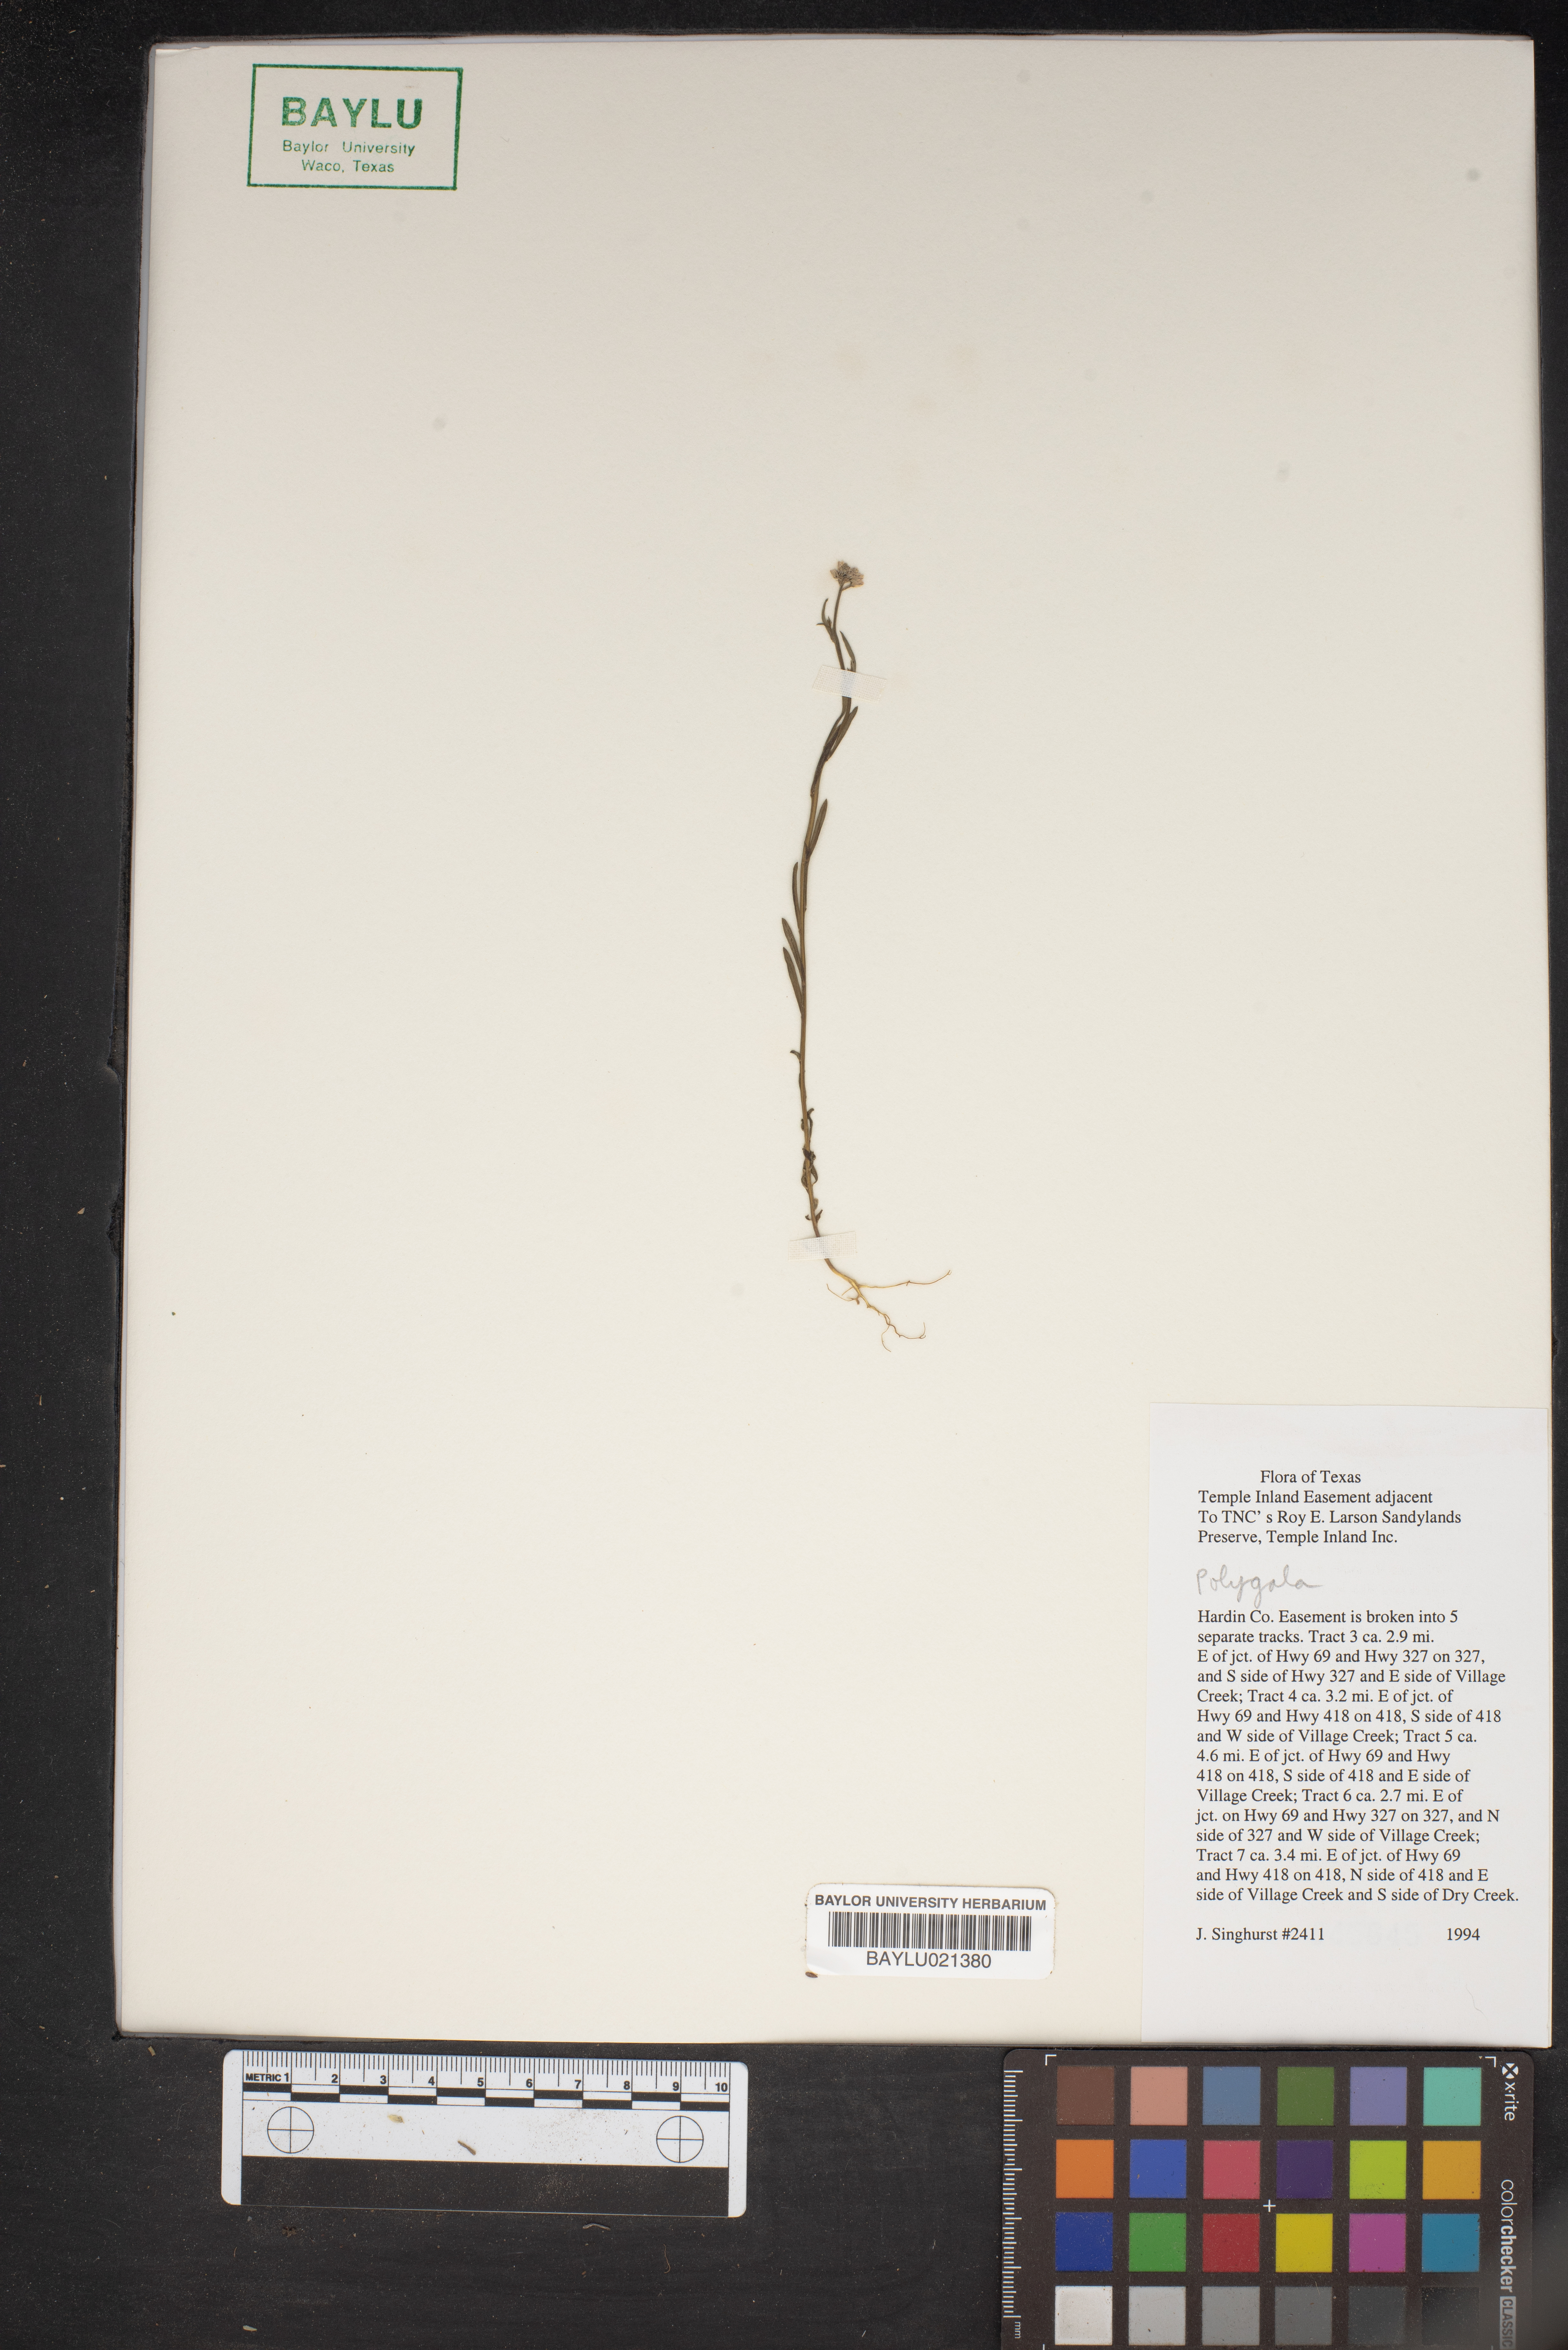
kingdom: Plantae
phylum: Tracheophyta
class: Magnoliopsida
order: Fabales
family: Polygalaceae
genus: Polygala
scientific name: Polygala
